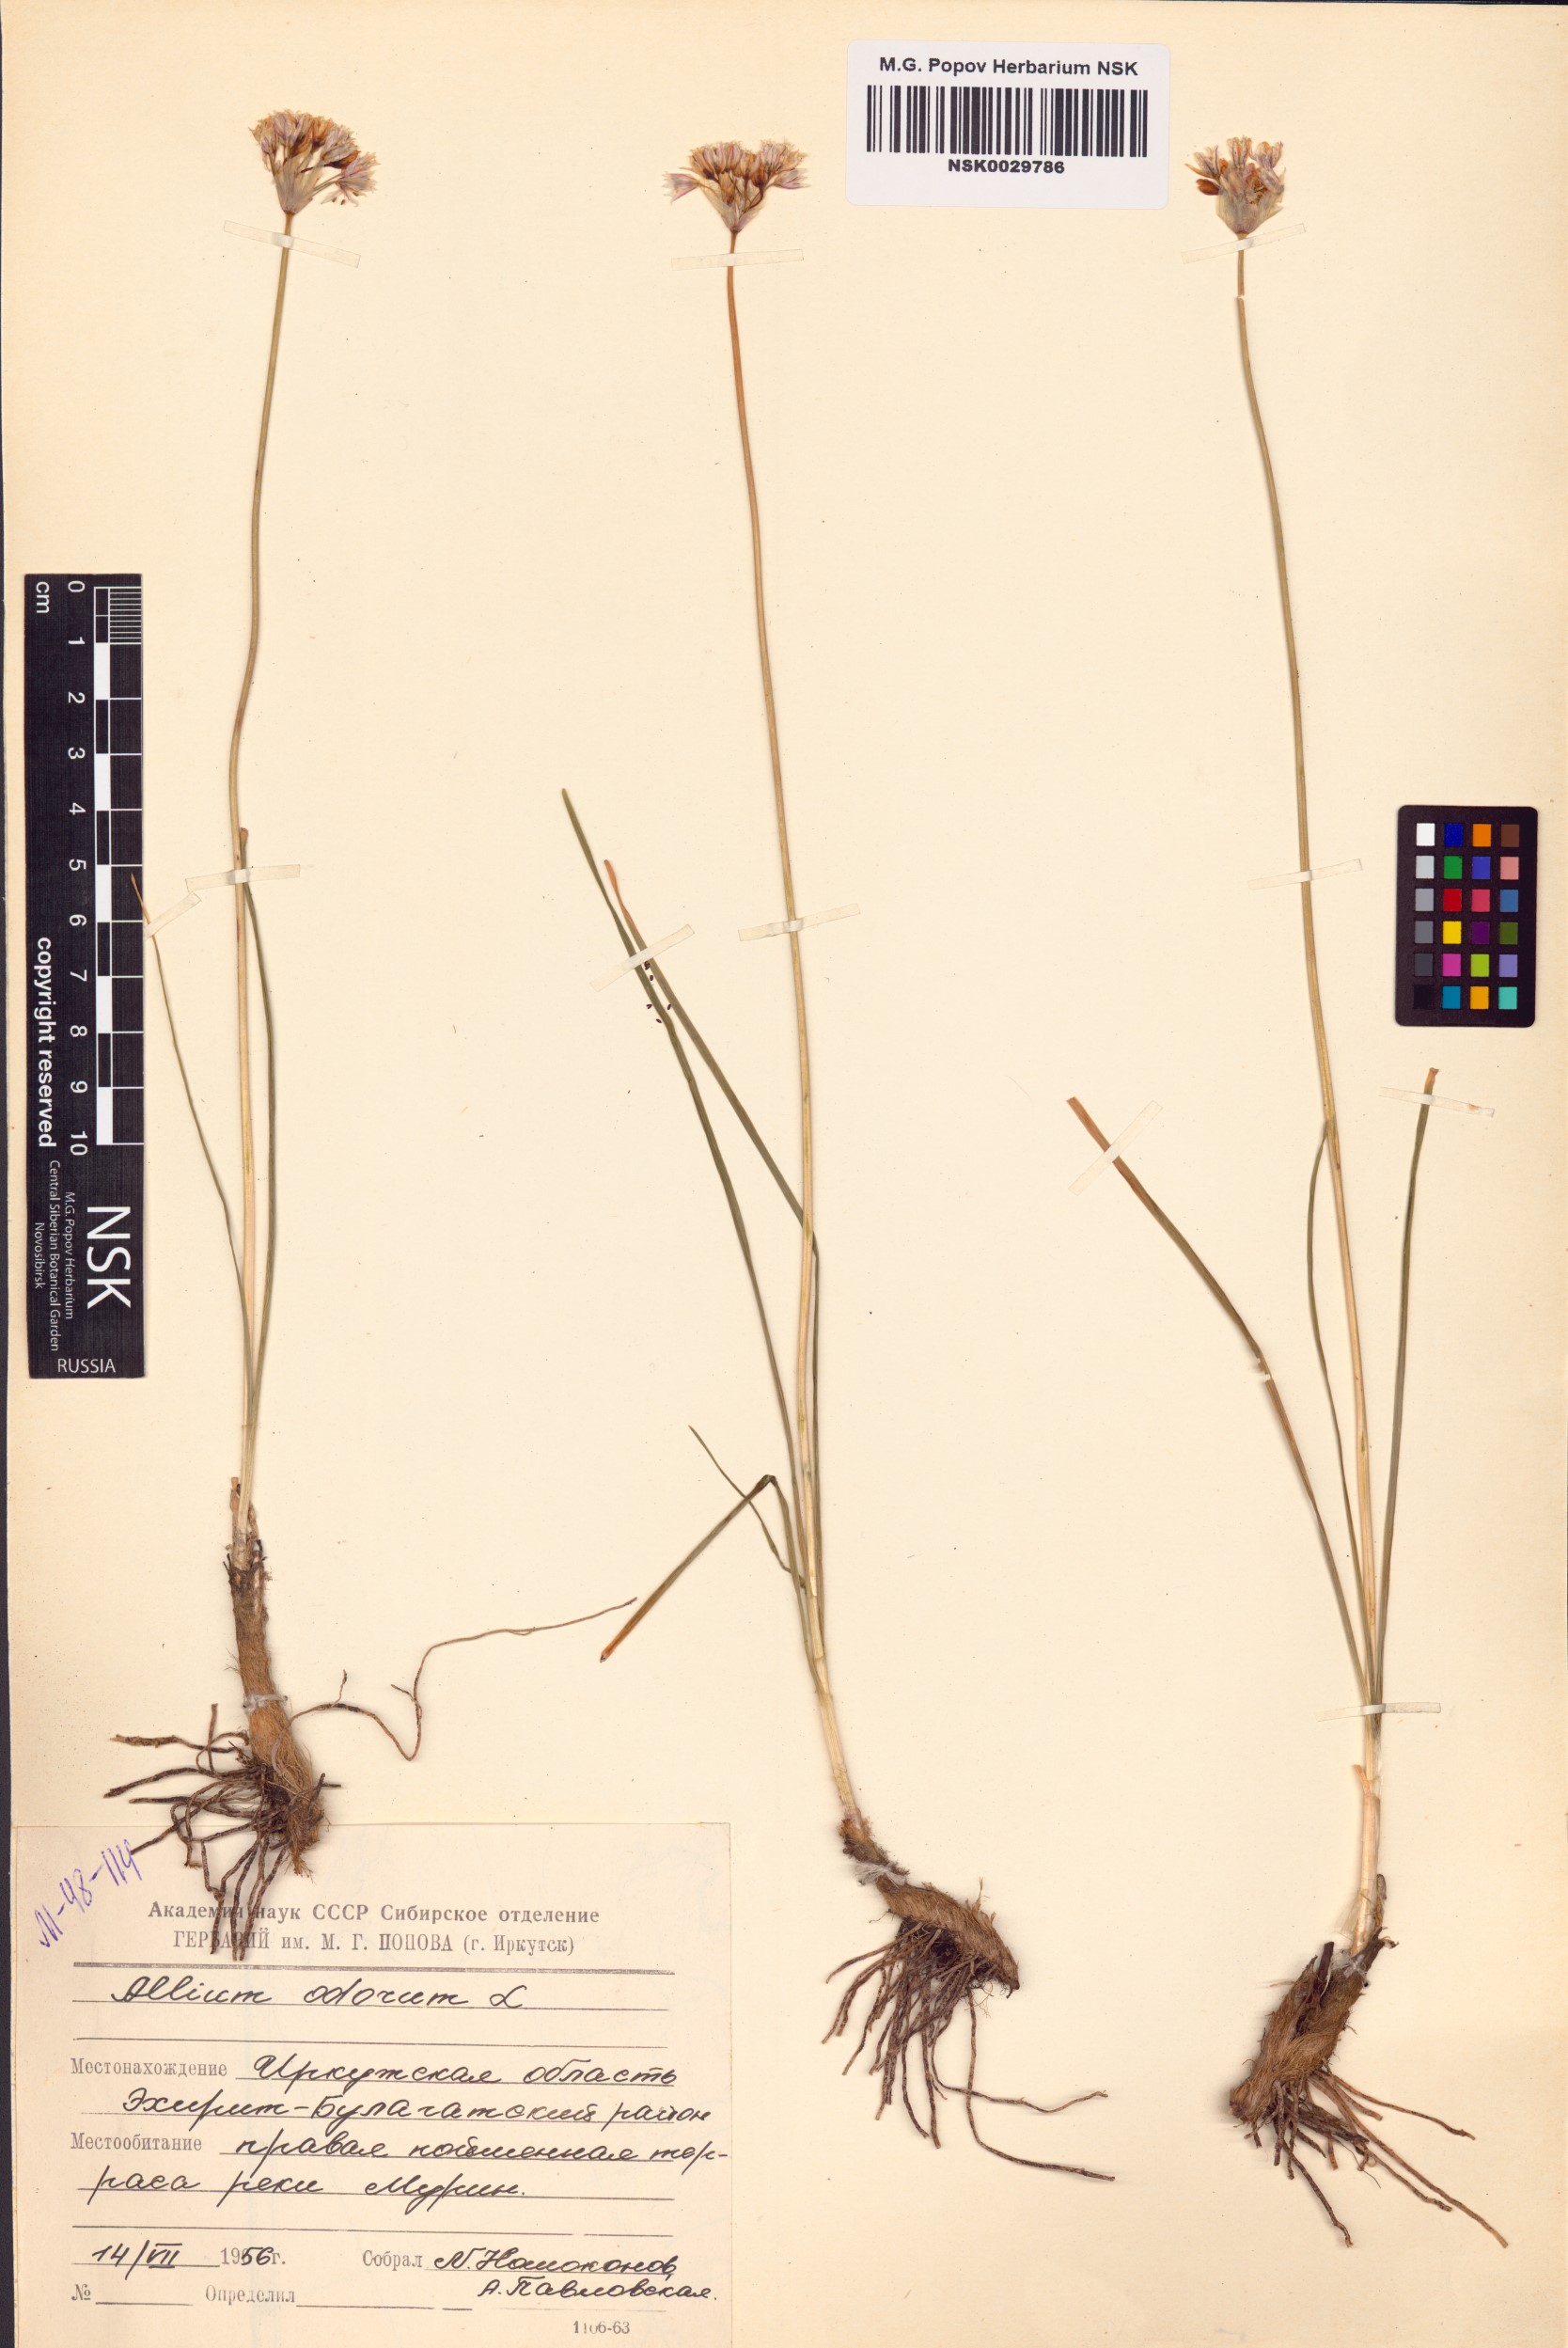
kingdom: Plantae
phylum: Tracheophyta
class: Liliopsida
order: Asparagales
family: Amaryllidaceae
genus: Allium
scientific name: Allium ramosum
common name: Fragrant garlic
